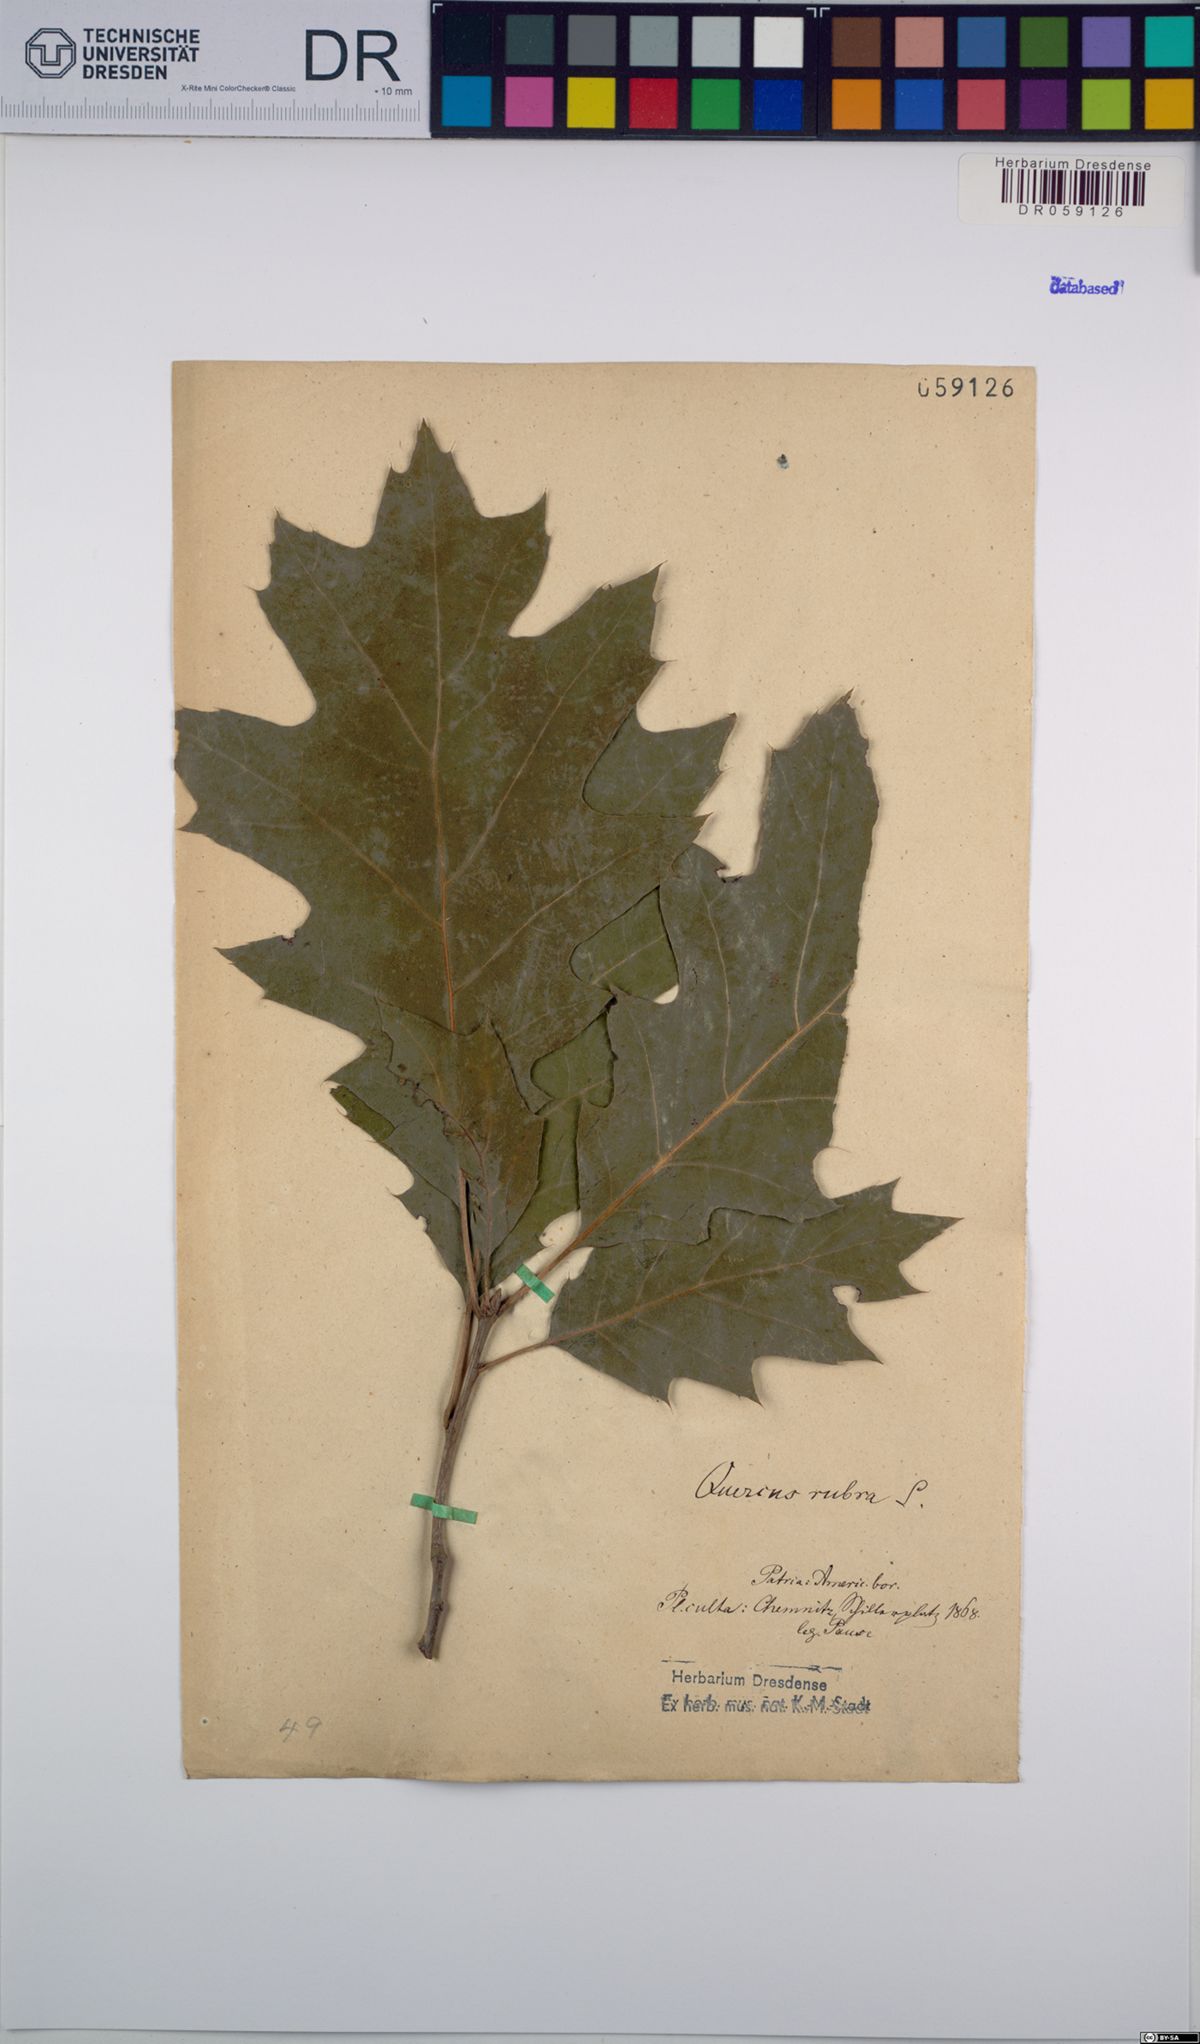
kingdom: Plantae
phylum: Tracheophyta
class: Magnoliopsida
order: Fagales
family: Fagaceae
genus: Quercus
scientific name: Quercus rubra
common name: Red oak
